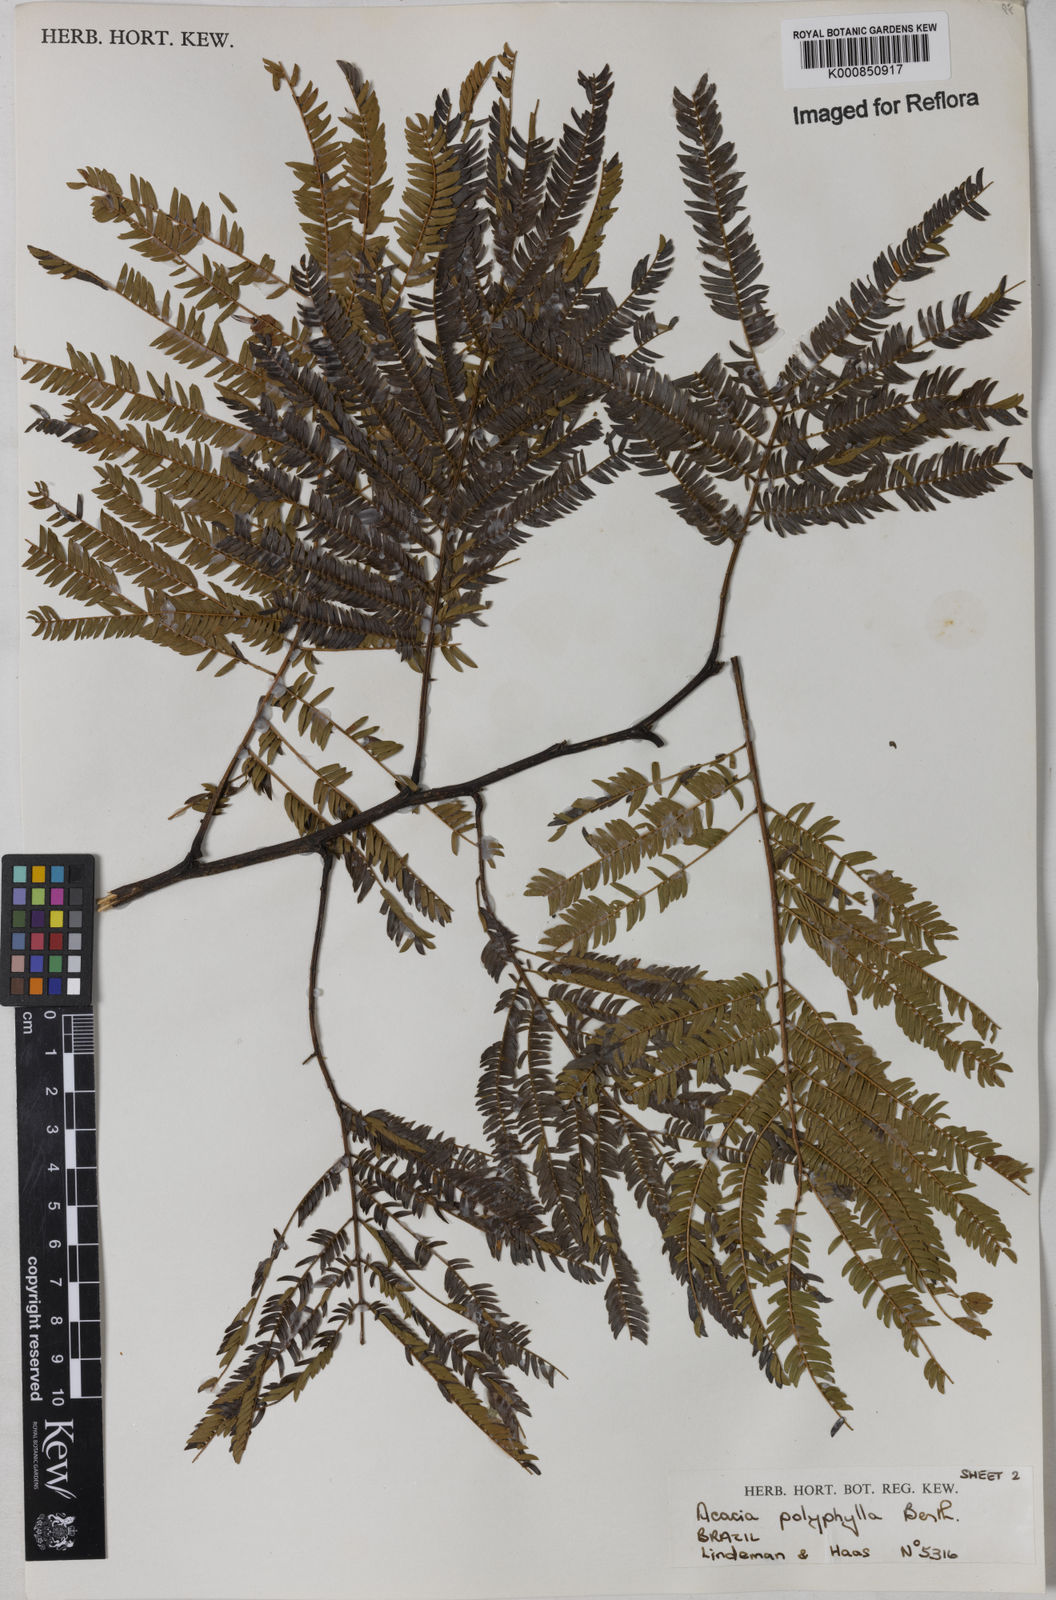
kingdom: Plantae
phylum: Tracheophyta
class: Magnoliopsida
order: Fabales
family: Fabaceae
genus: Senegalia
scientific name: Senegalia polyphylla
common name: White-tamarind
